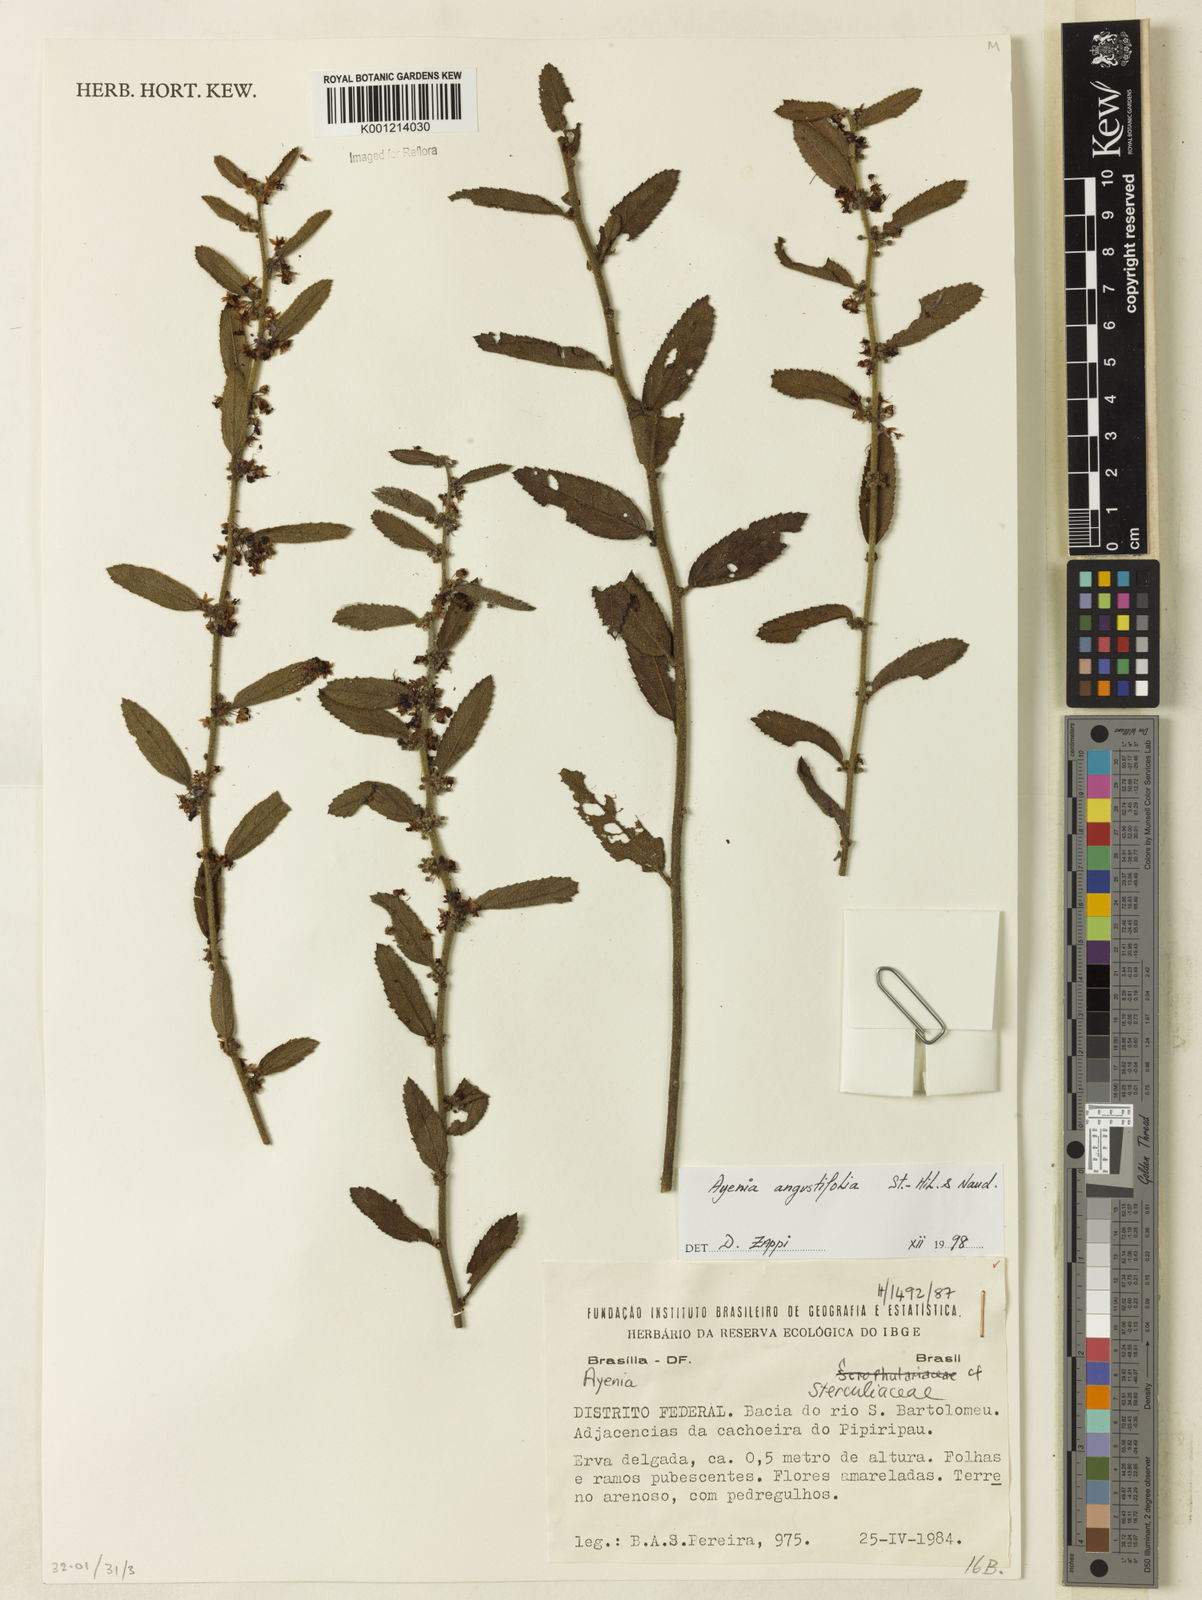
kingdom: Plantae
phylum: Tracheophyta
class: Magnoliopsida
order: Malvales
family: Malvaceae
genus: Ayenia
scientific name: Ayenia angustifolia
